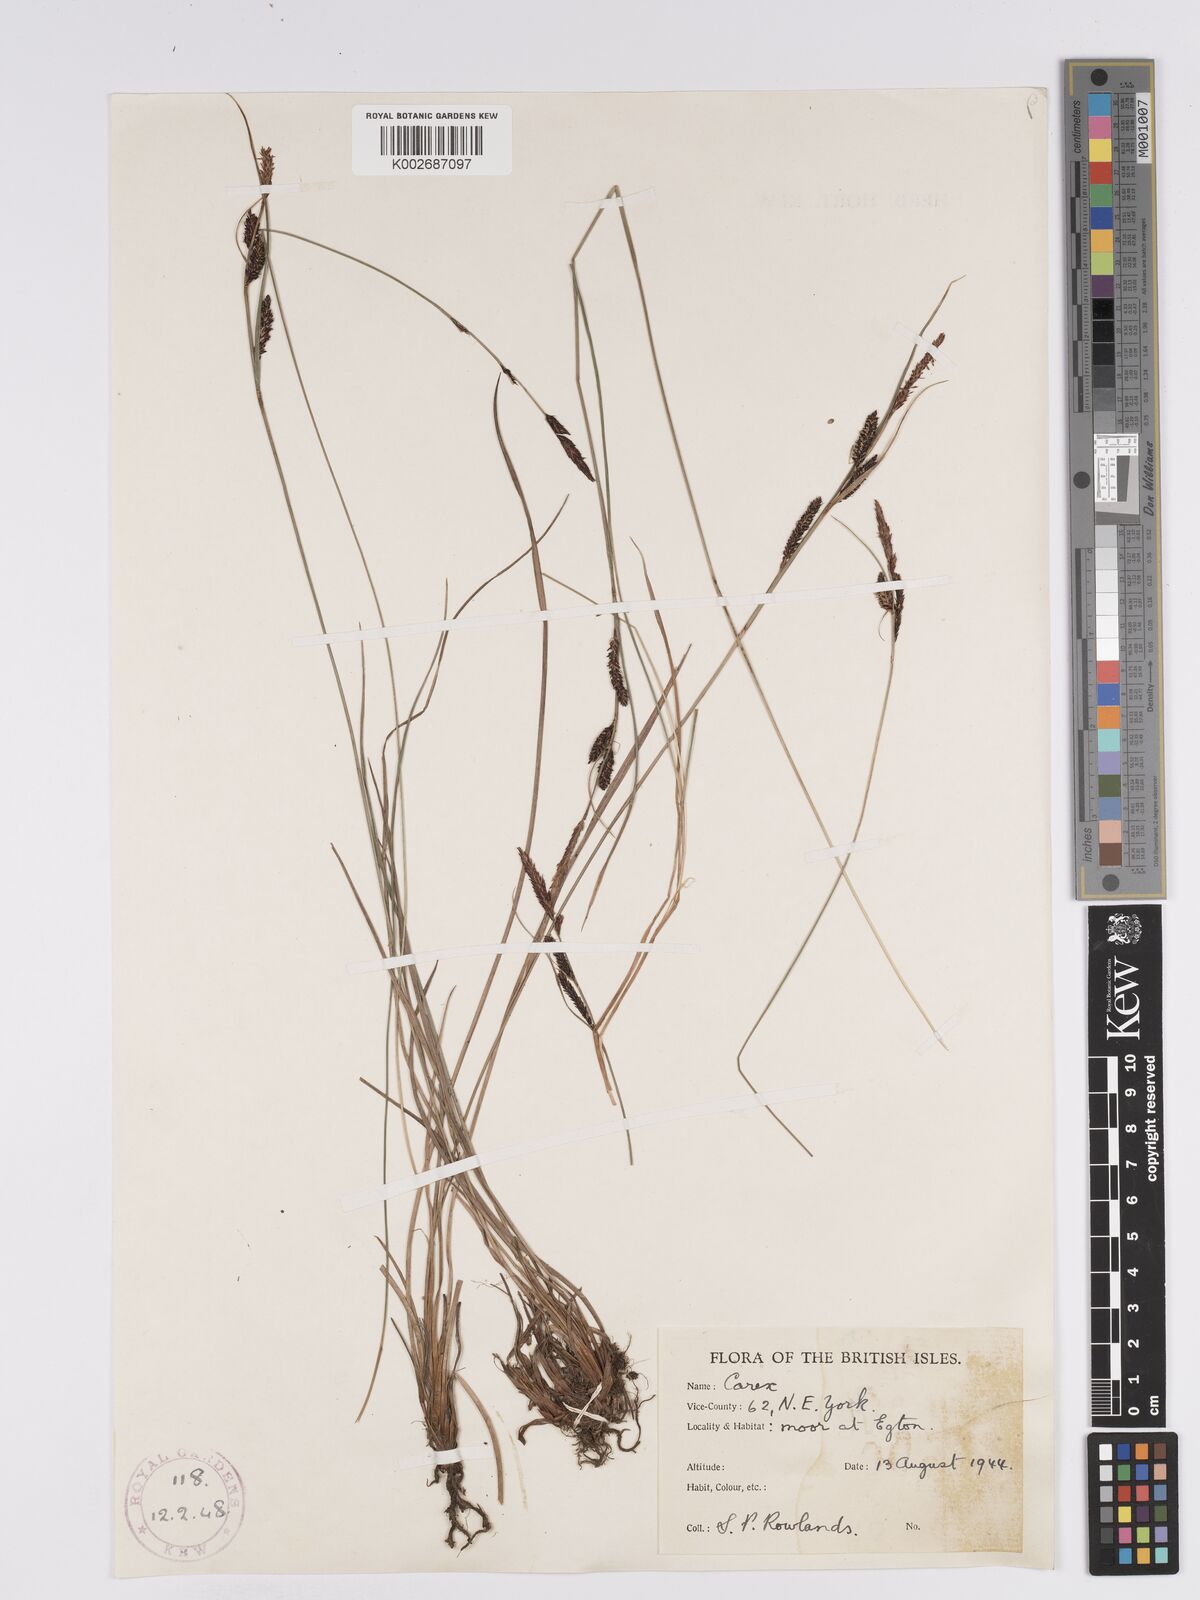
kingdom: Plantae
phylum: Tracheophyta
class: Liliopsida
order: Poales
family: Cyperaceae
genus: Carex
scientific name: Carex nigra
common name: Common sedge
